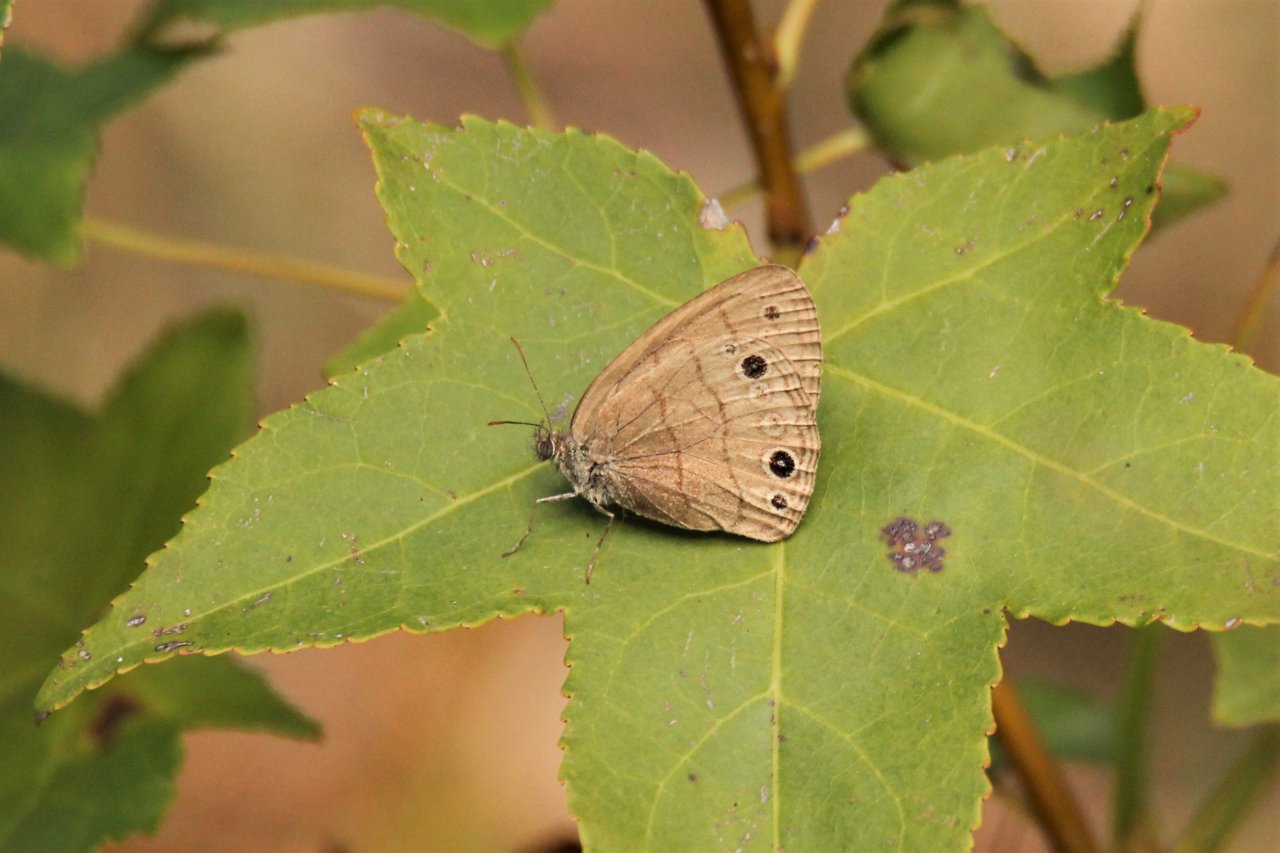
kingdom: Animalia
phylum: Arthropoda
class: Insecta
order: Lepidoptera
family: Nymphalidae
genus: Hermeuptychia
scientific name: Hermeuptychia hermes
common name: Carolina Satyr
